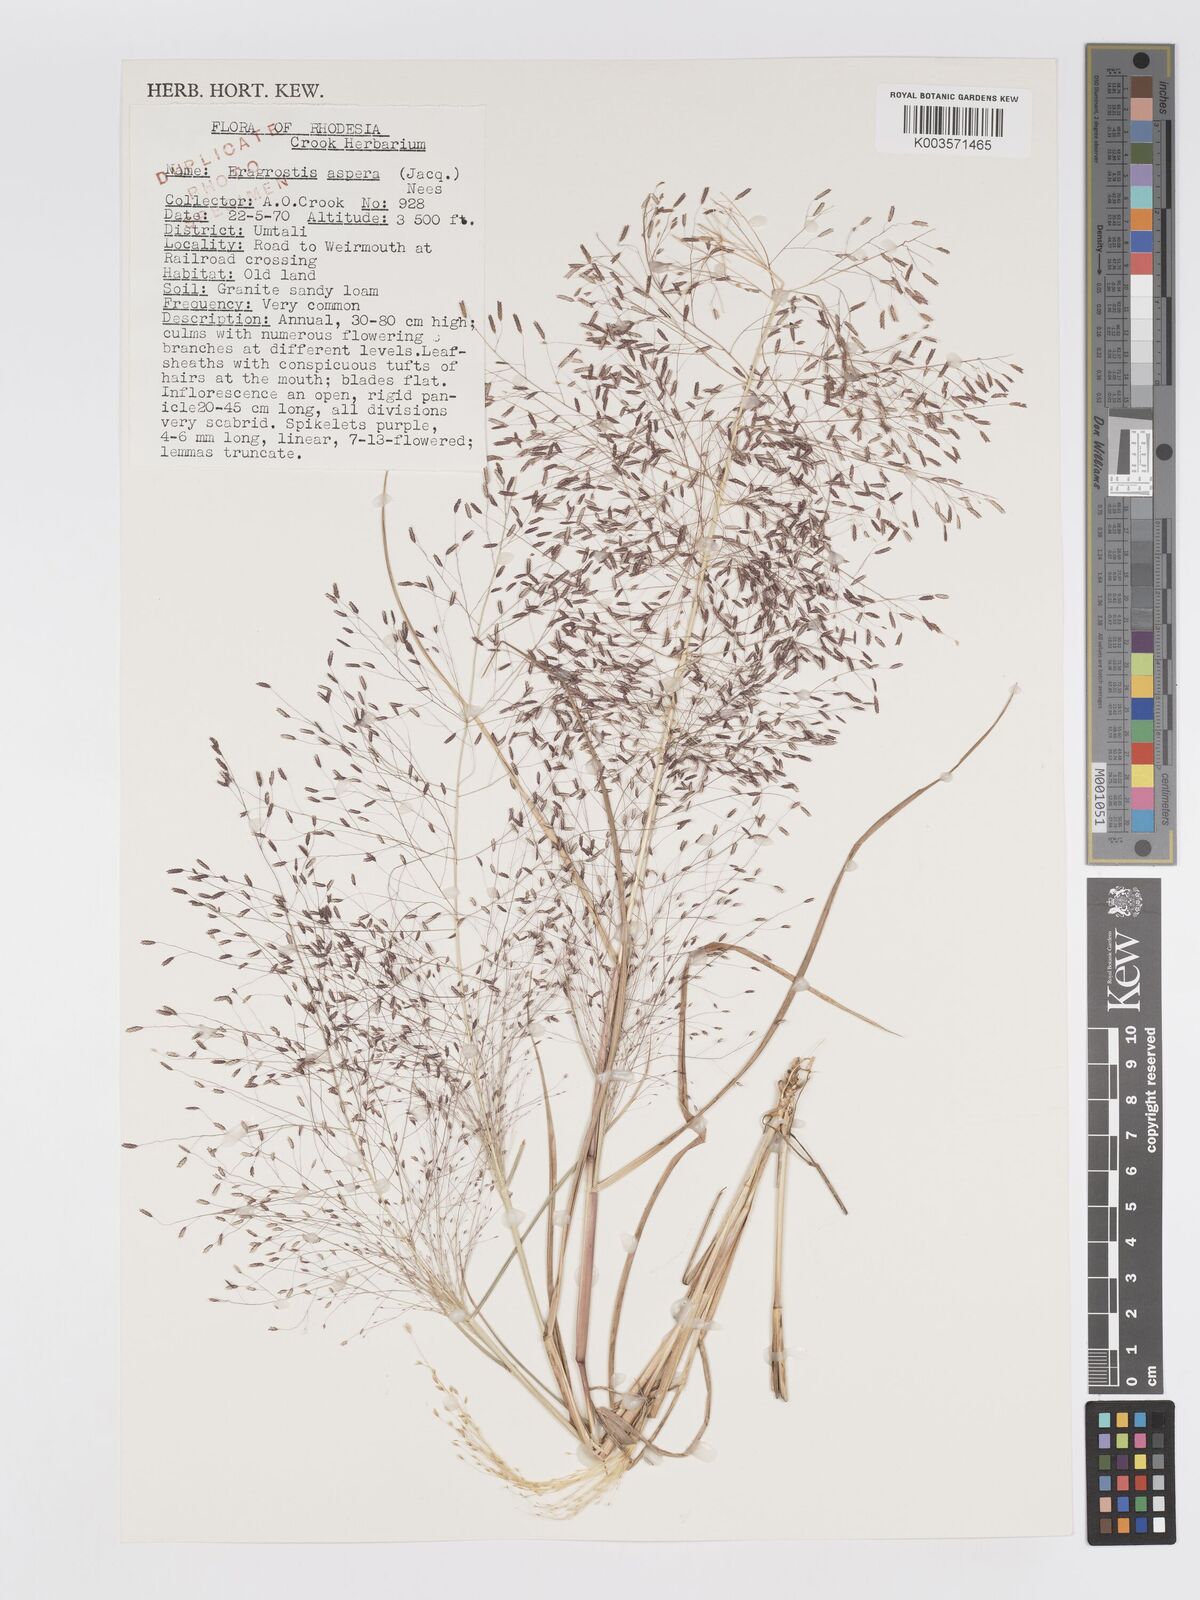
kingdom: Plantae
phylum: Tracheophyta
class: Liliopsida
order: Poales
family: Poaceae
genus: Eragrostis
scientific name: Eragrostis aspera
